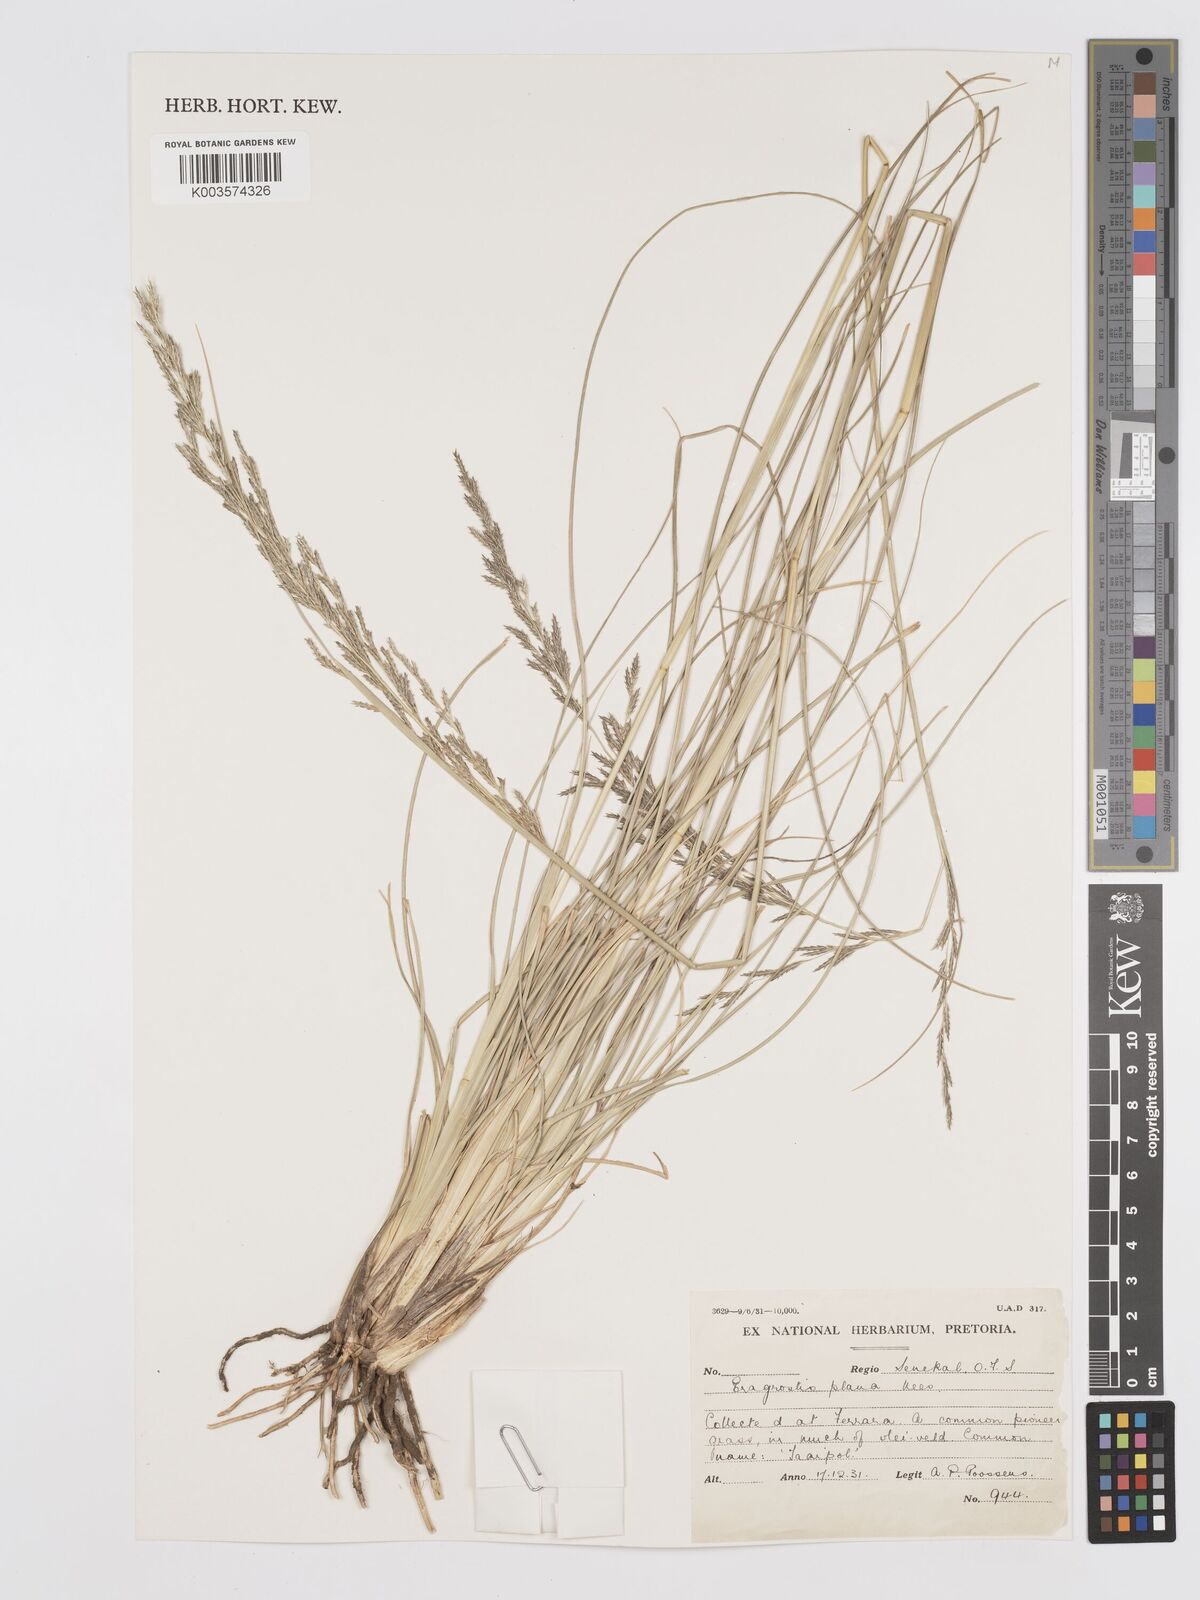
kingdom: Plantae
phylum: Tracheophyta
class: Liliopsida
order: Poales
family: Poaceae
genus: Eragrostis
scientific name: Eragrostis plana
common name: South african lovegrass
